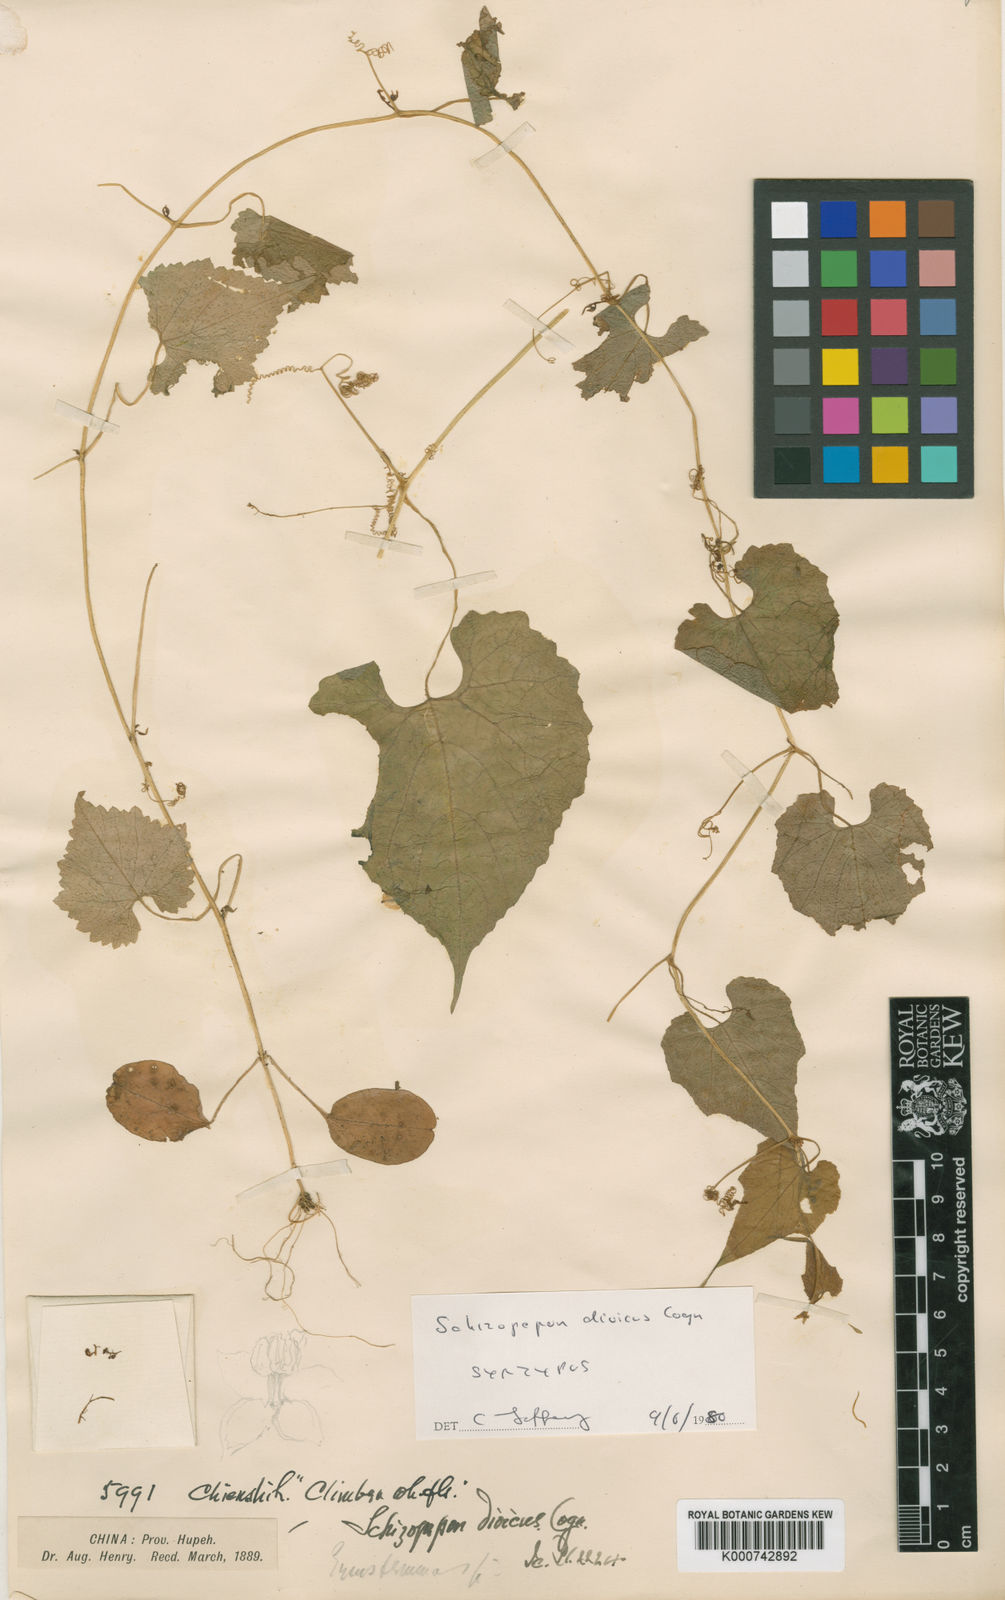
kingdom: Plantae
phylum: Tracheophyta
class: Magnoliopsida
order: Cucurbitales
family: Cucurbitaceae
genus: Schizopepon
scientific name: Schizopepon dioicus
